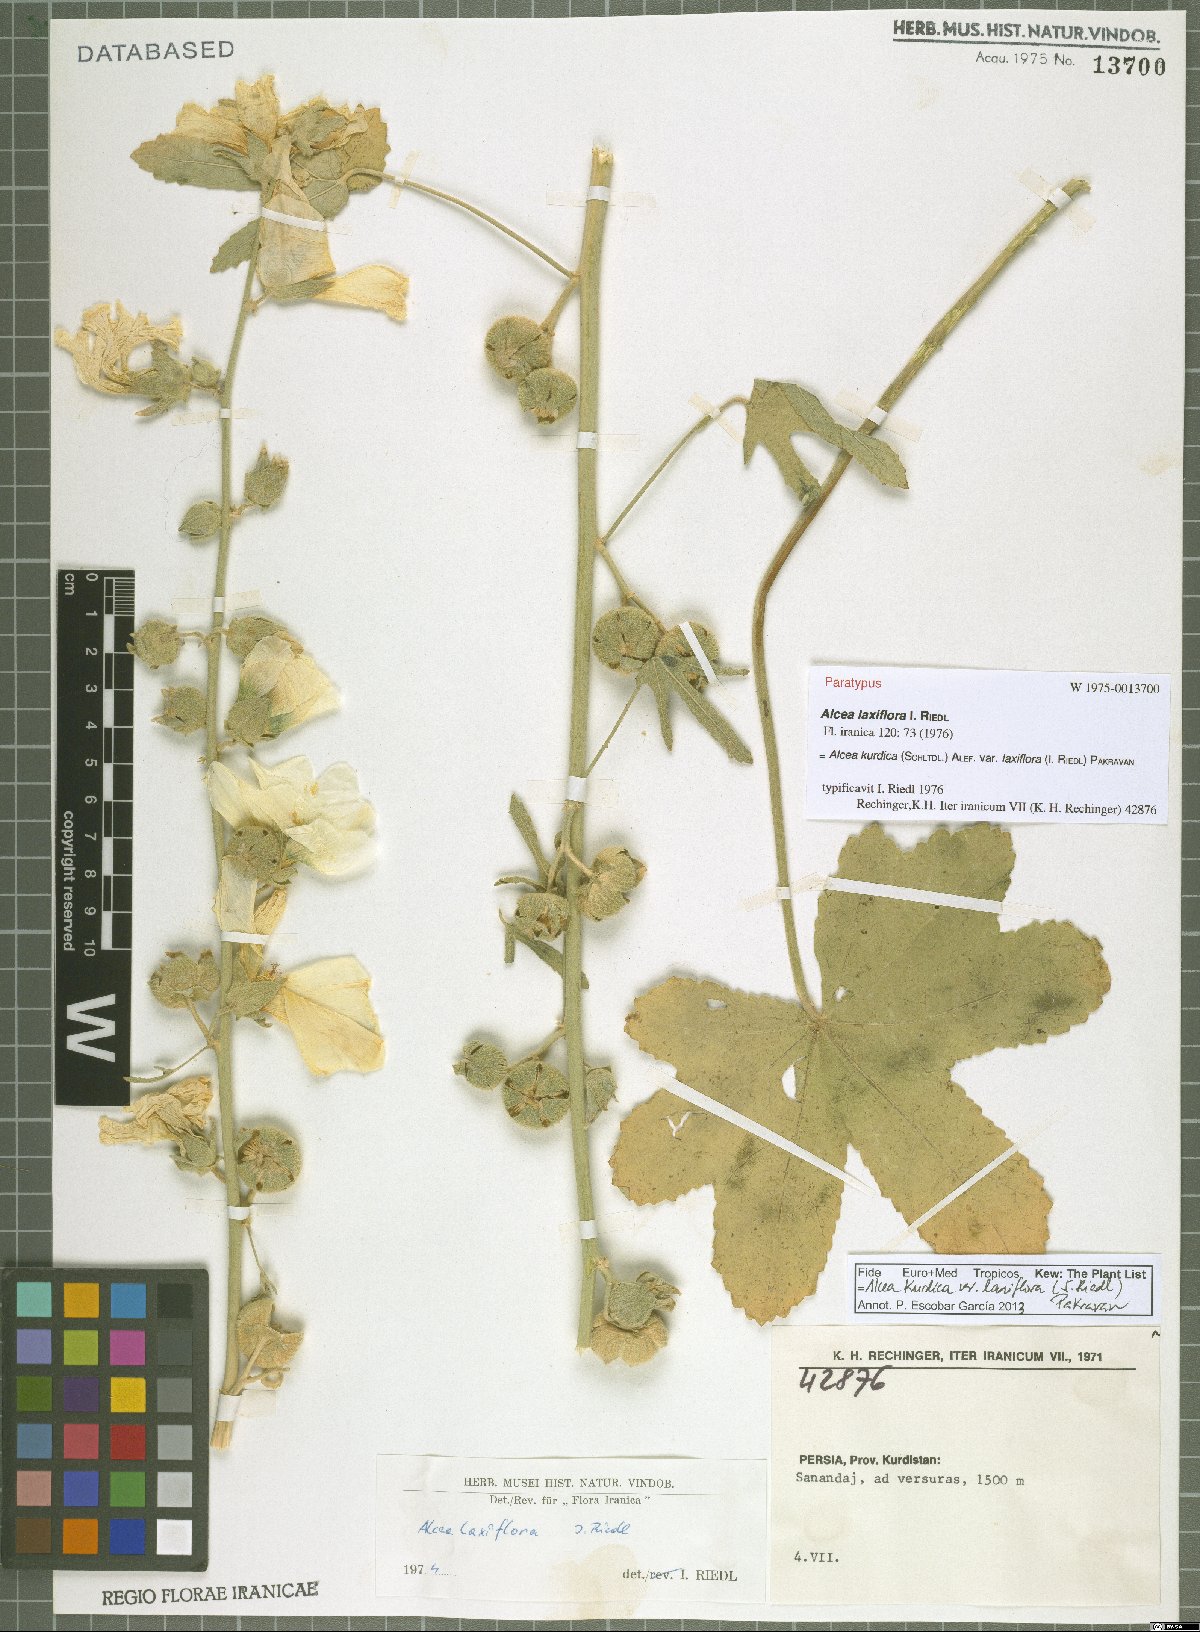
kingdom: Plantae
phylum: Tracheophyta
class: Magnoliopsida
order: Malvales
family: Malvaceae
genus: Alcea
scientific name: Alcea kurdica
